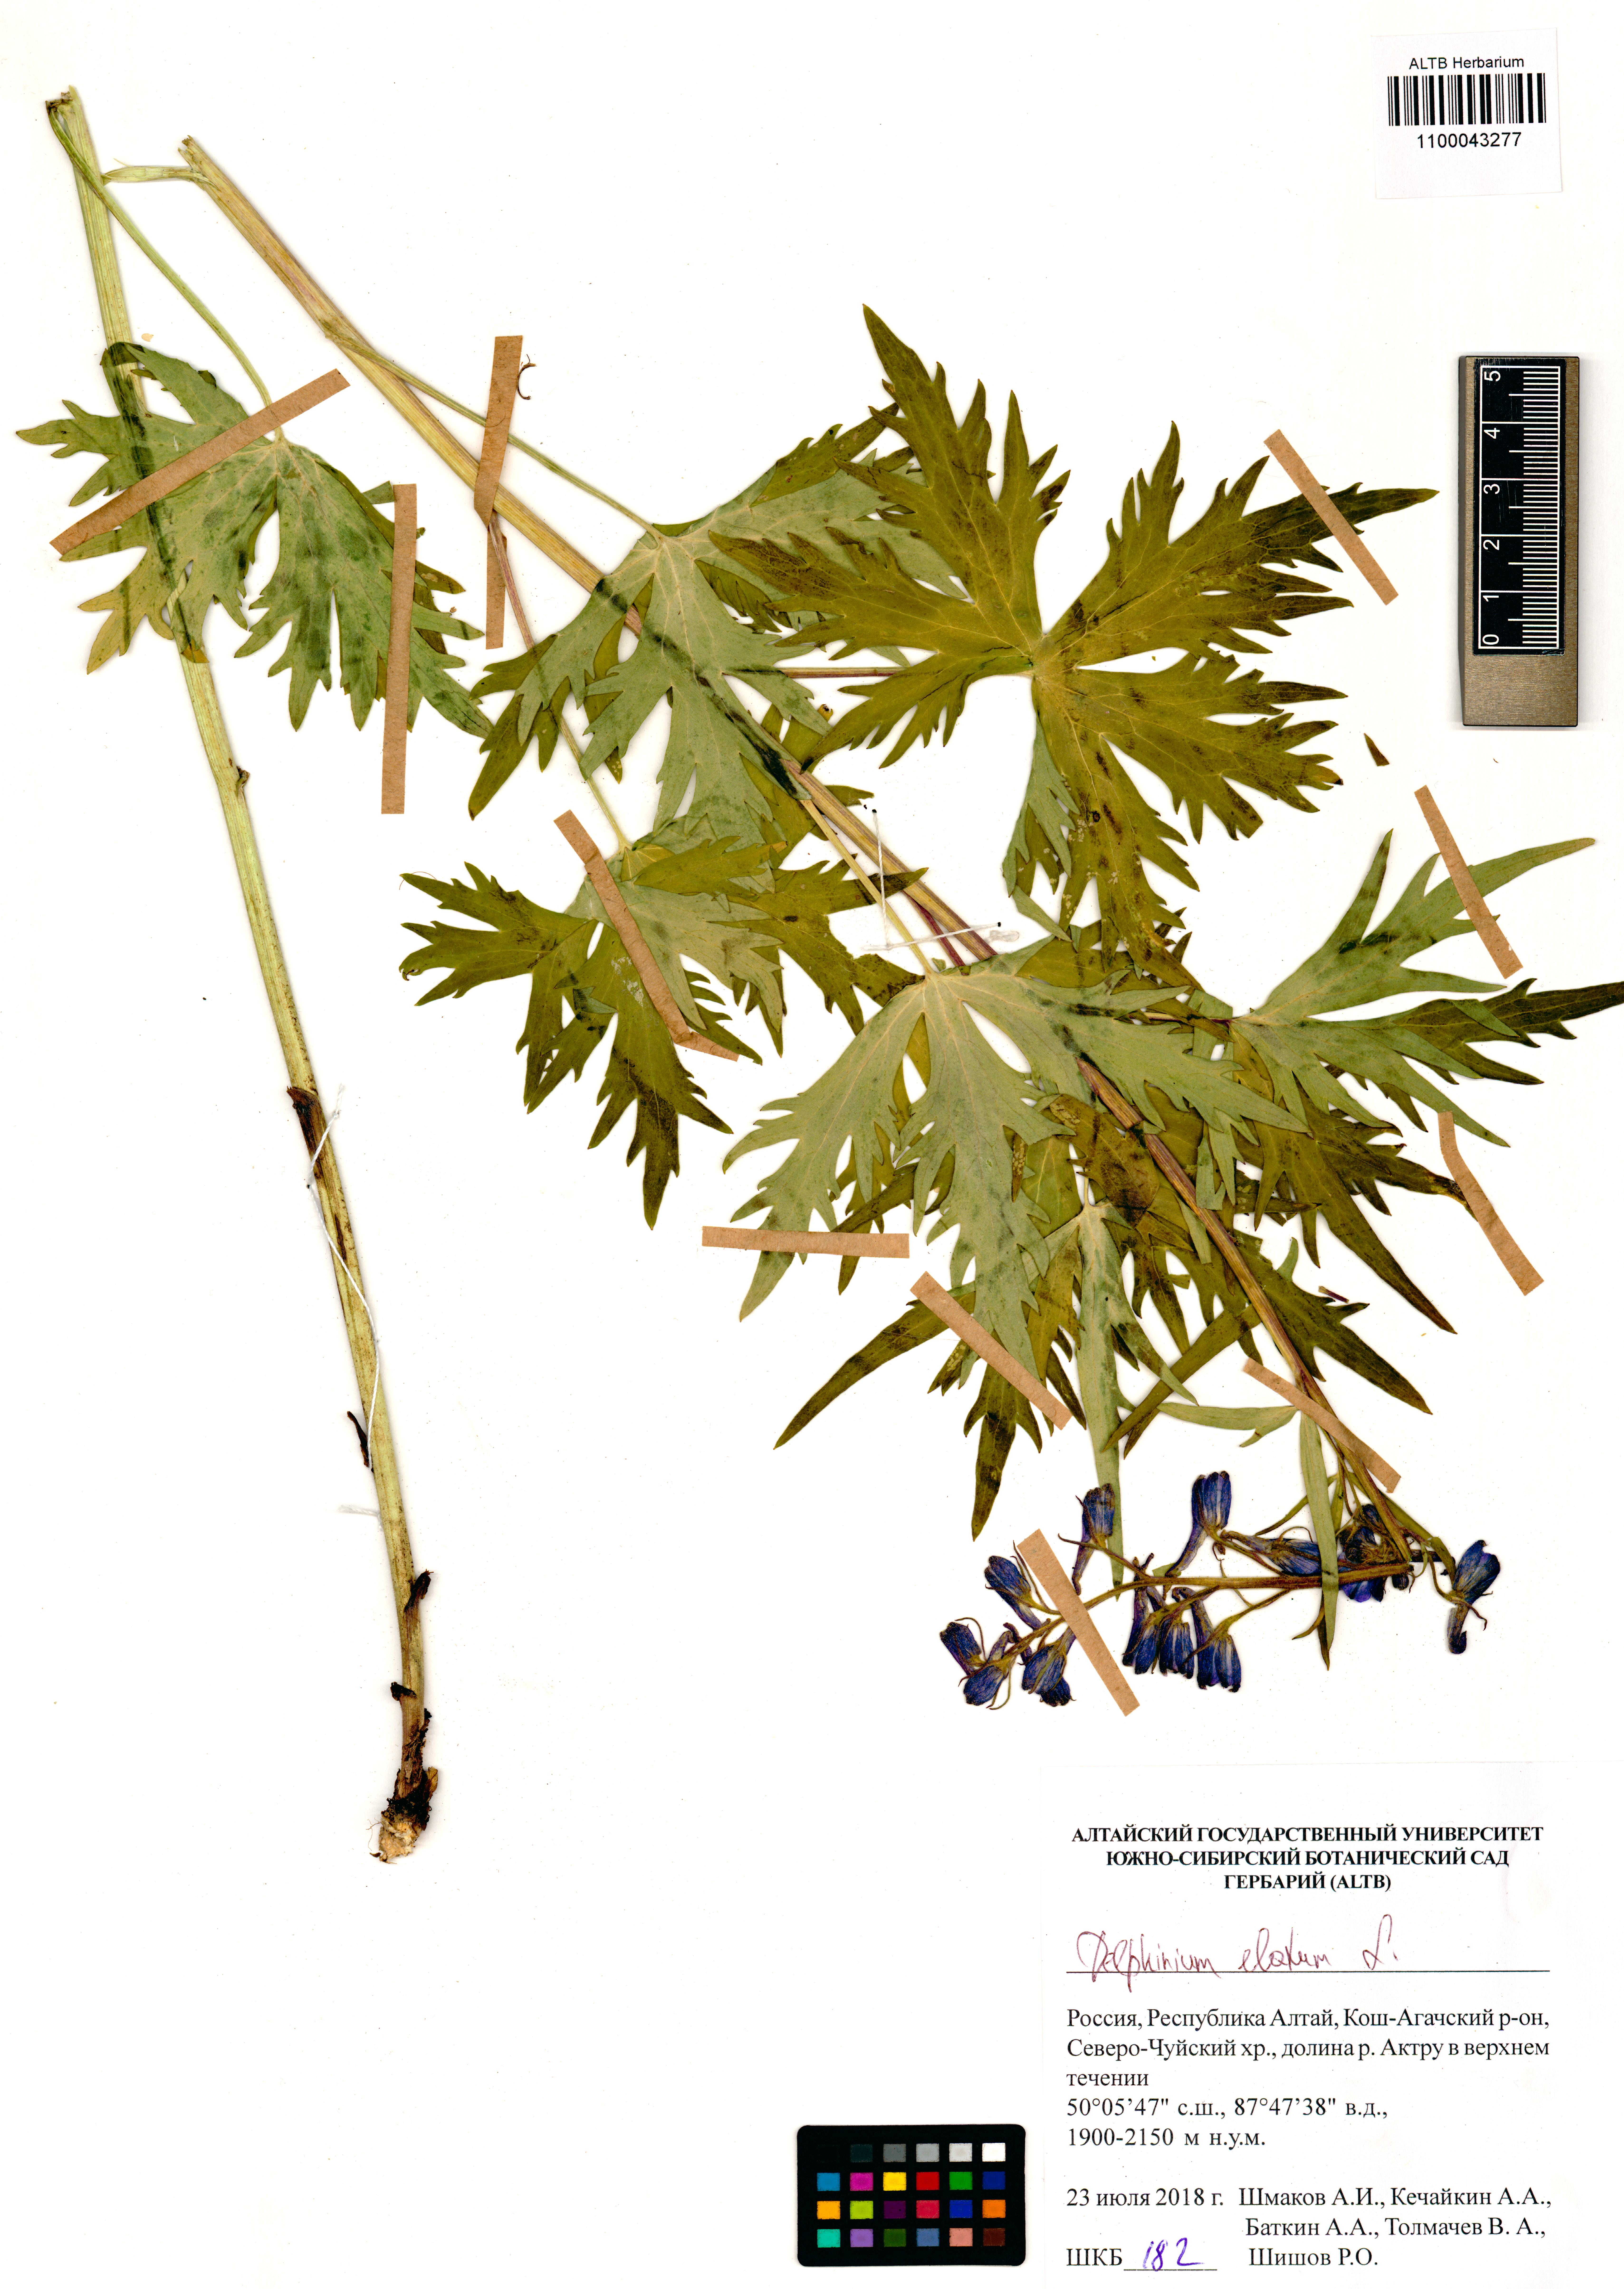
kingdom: Plantae
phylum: Tracheophyta
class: Magnoliopsida
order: Ranunculales
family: Ranunculaceae
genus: Delphinium
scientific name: Delphinium elatum
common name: Candle larkspur
